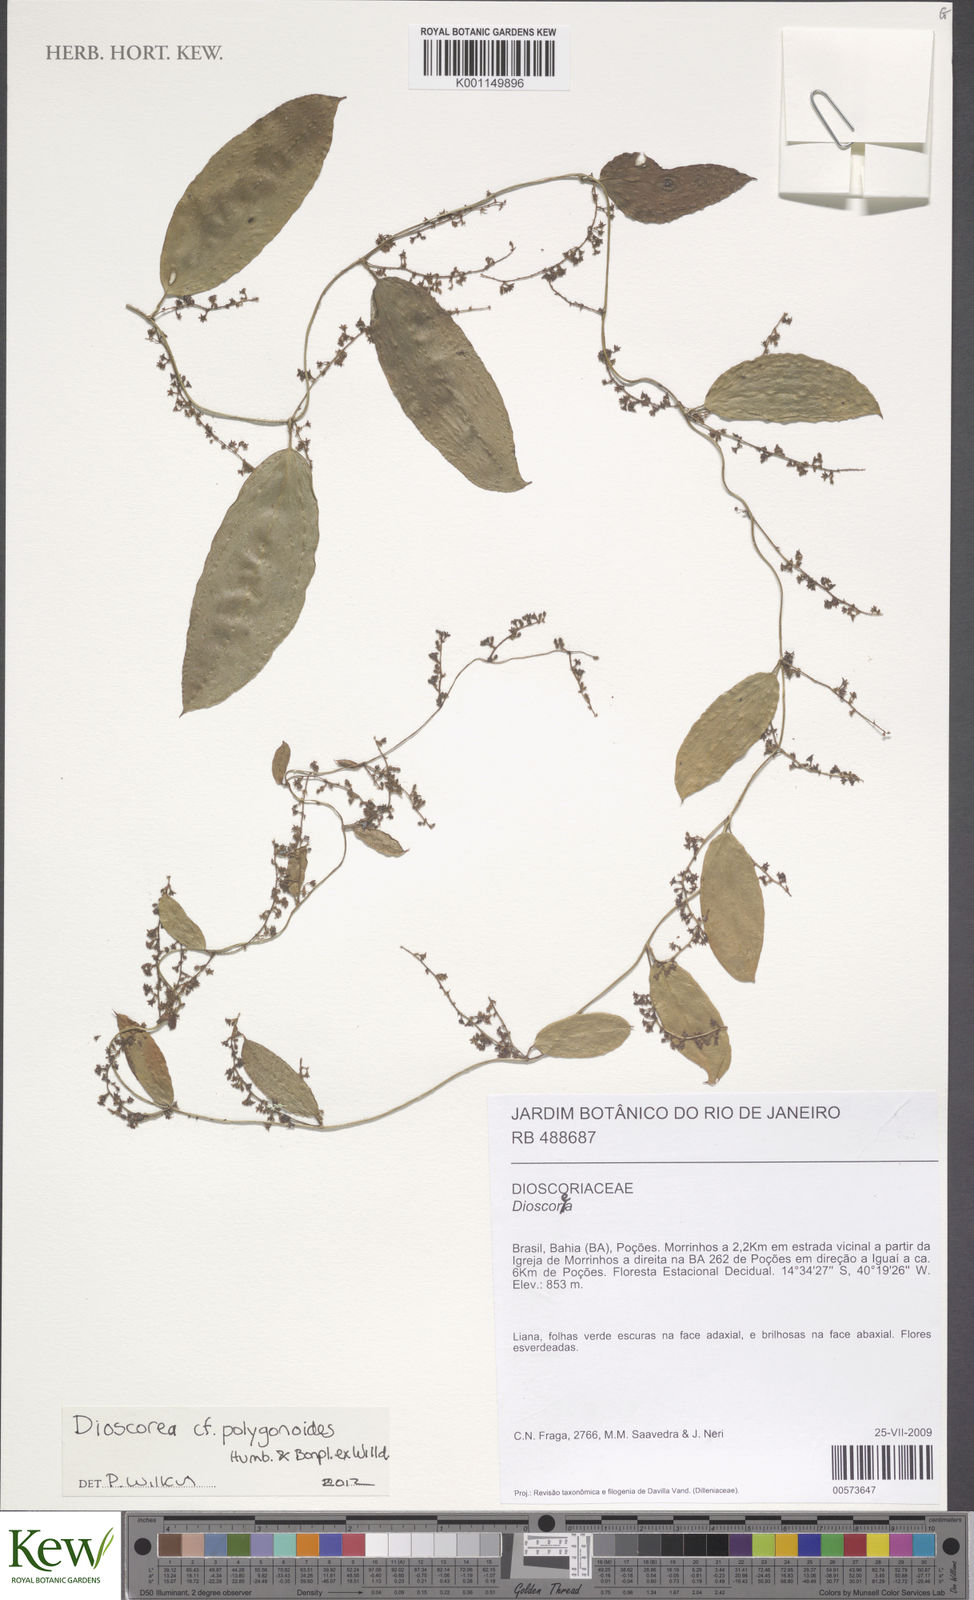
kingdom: Plantae
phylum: Tracheophyta
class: Liliopsida
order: Dioscoreales
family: Dioscoreaceae
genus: Dioscorea
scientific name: Dioscorea polygonoides
